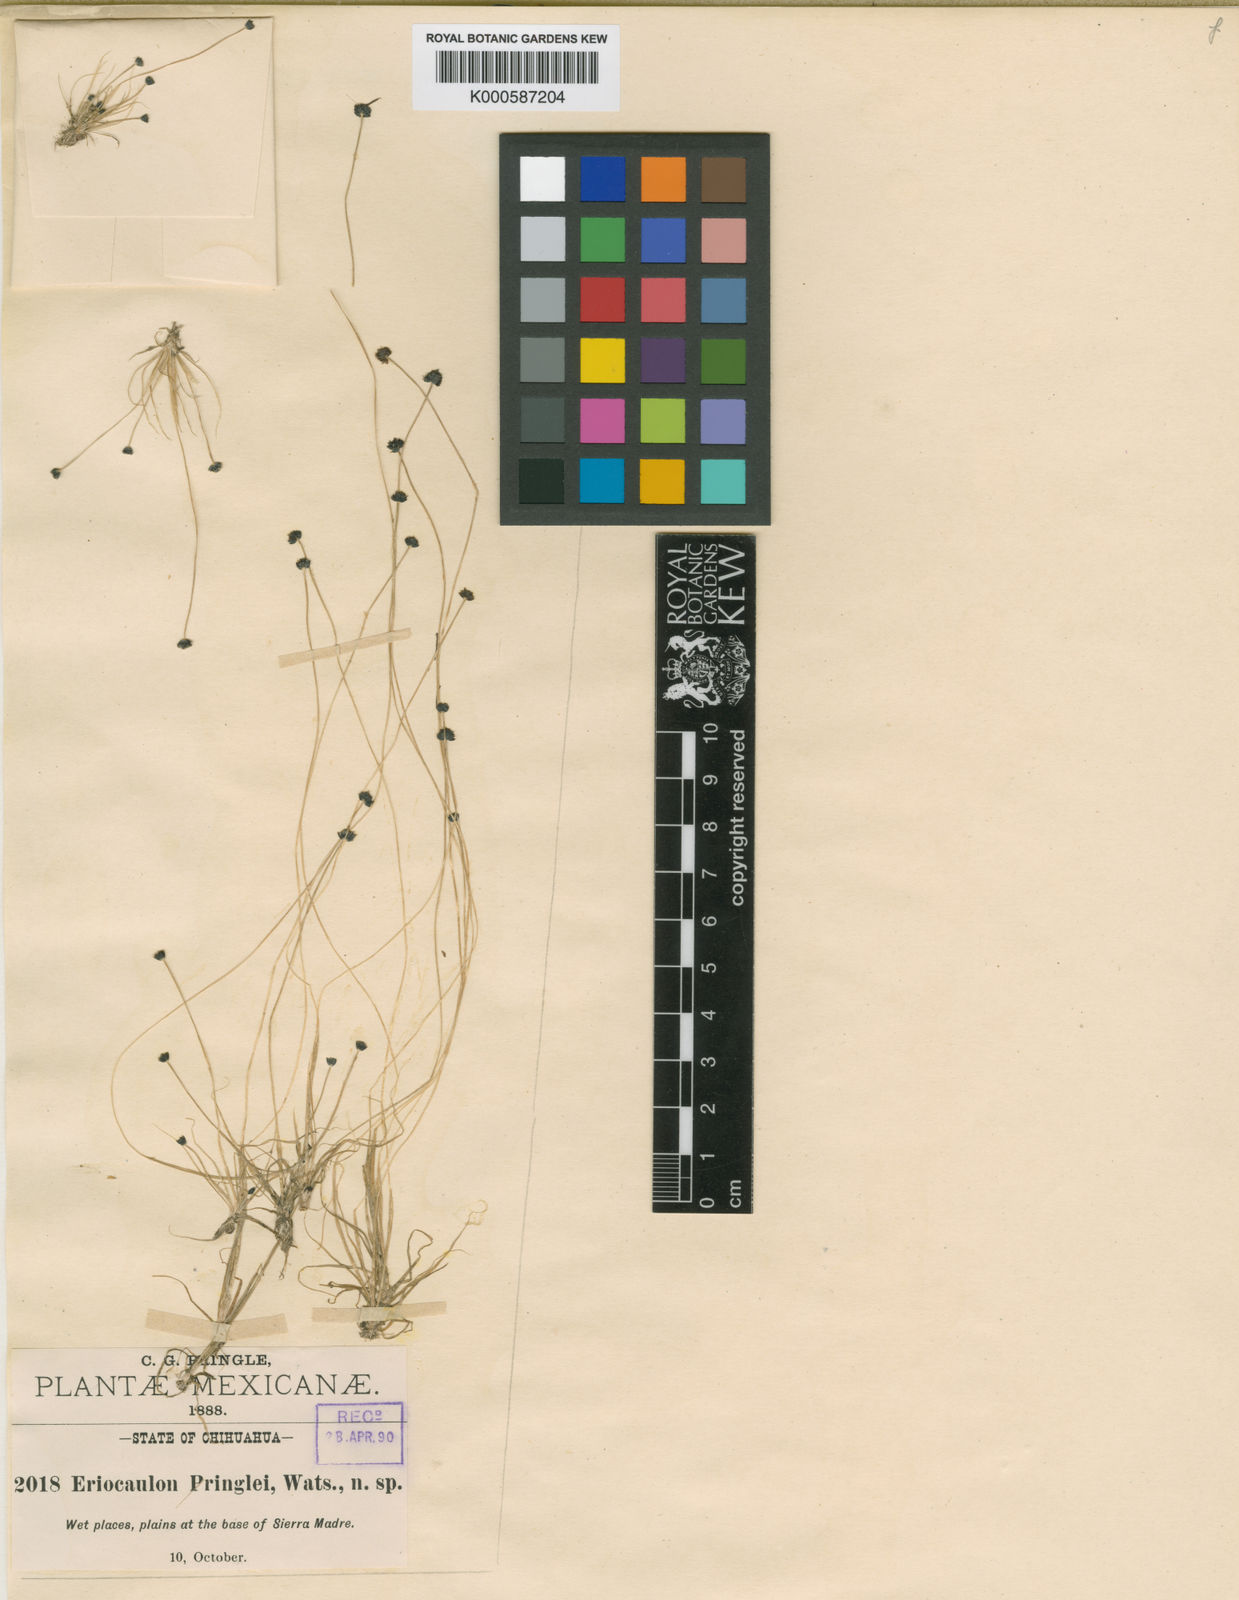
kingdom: Plantae
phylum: Tracheophyta
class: Liliopsida
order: Poales
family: Eriocaulaceae
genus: Eriocaulon
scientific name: Eriocaulon pringlei
